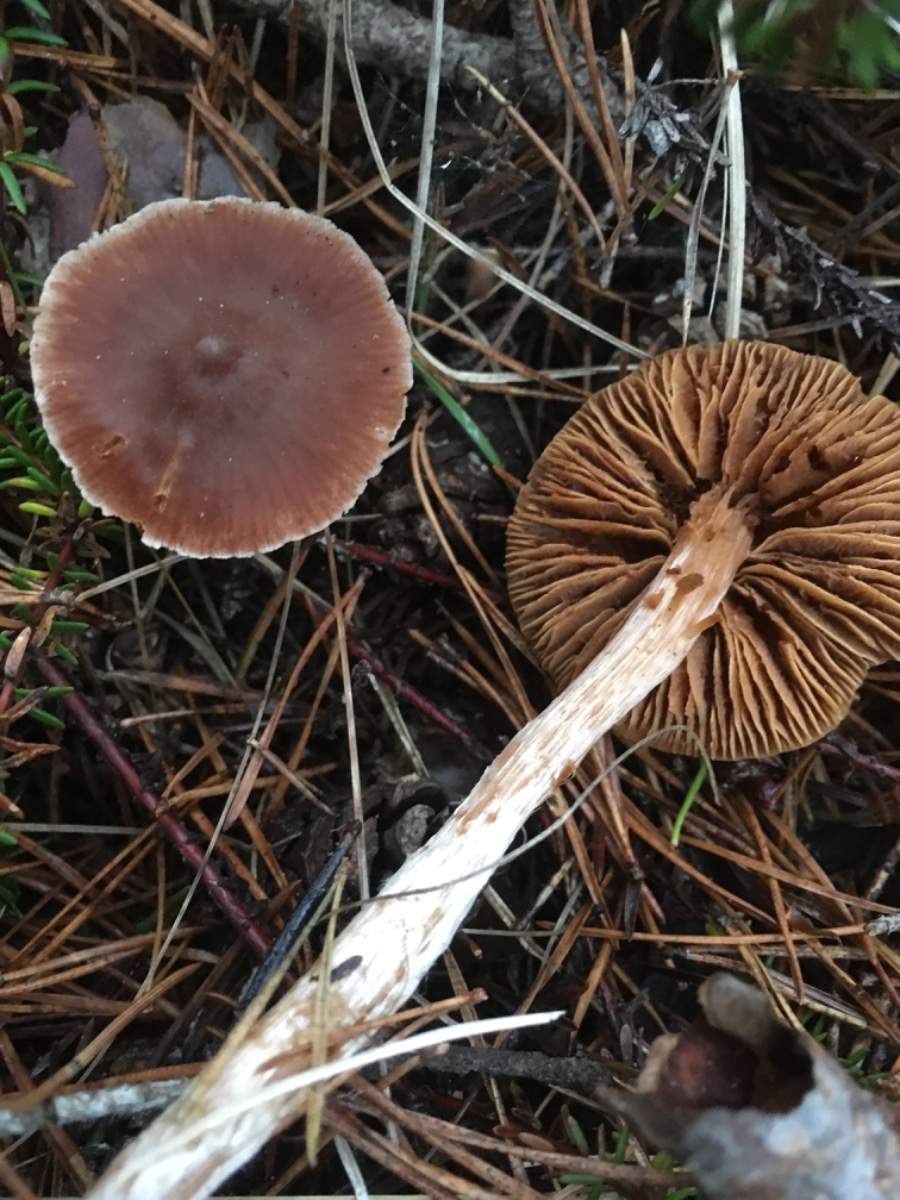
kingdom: Fungi
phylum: Basidiomycota
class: Agaricomycetes
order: Agaricales
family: Cortinariaceae
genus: Cortinarius
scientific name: Cortinarius
